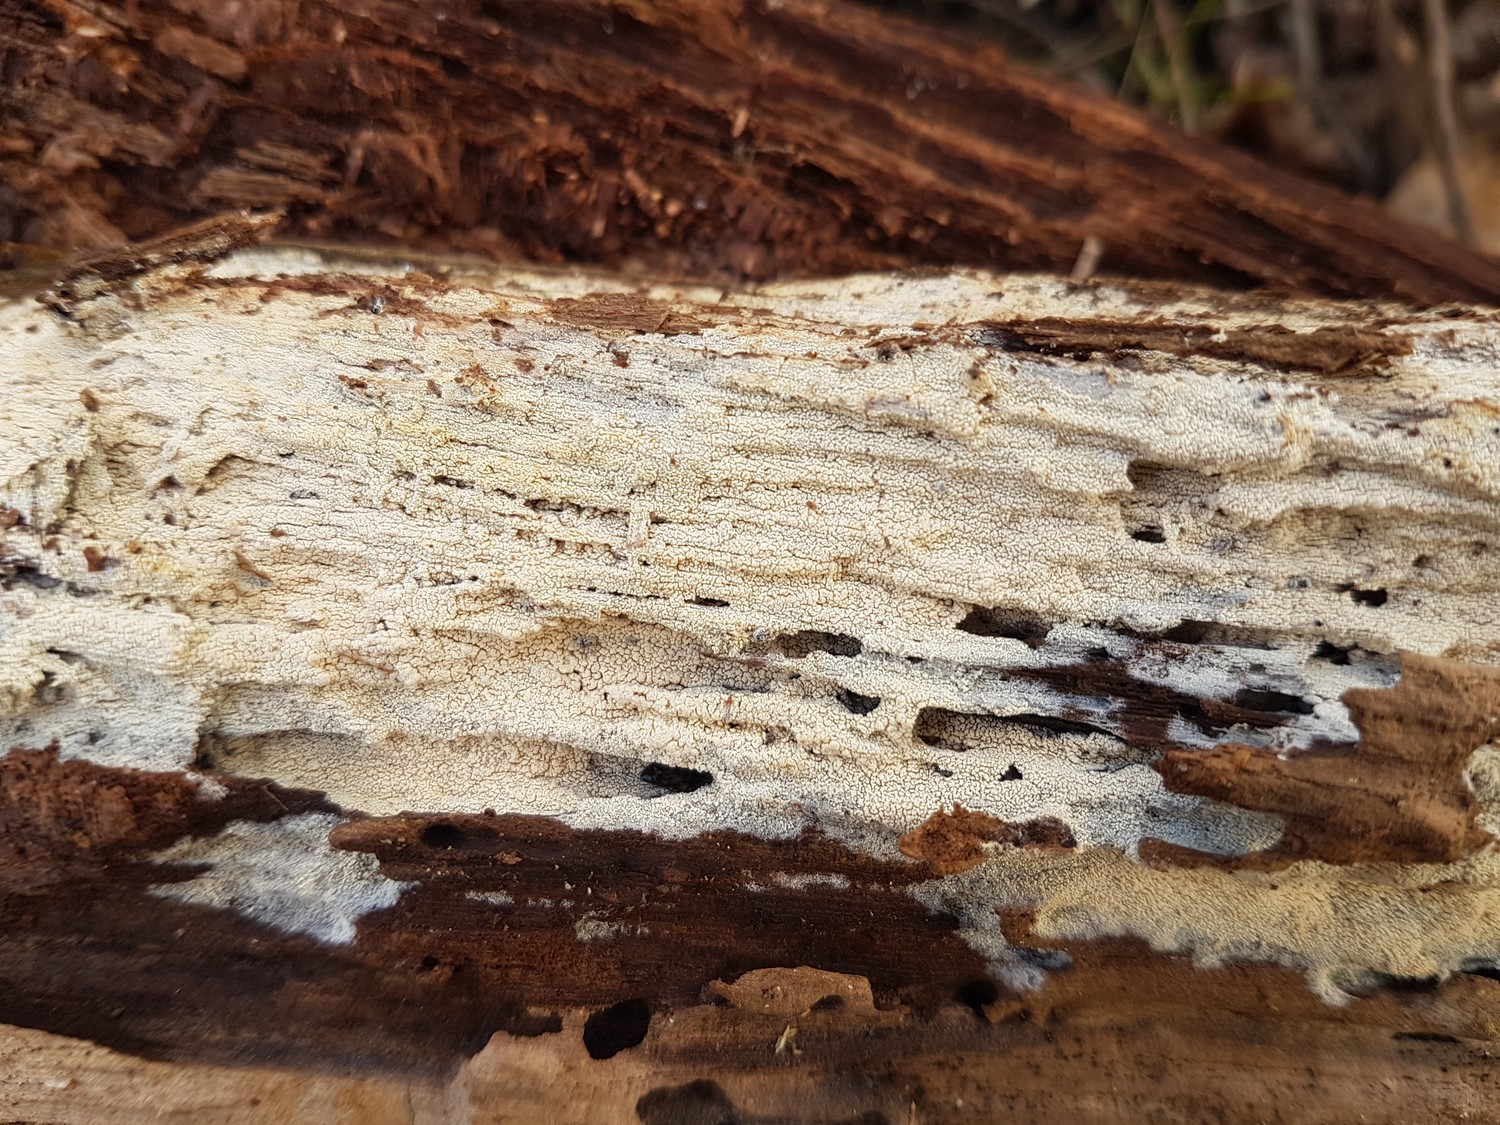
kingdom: Fungi
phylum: Basidiomycota
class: Agaricomycetes
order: Trechisporales
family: Sistotremataceae
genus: Trechispora
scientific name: Trechispora
